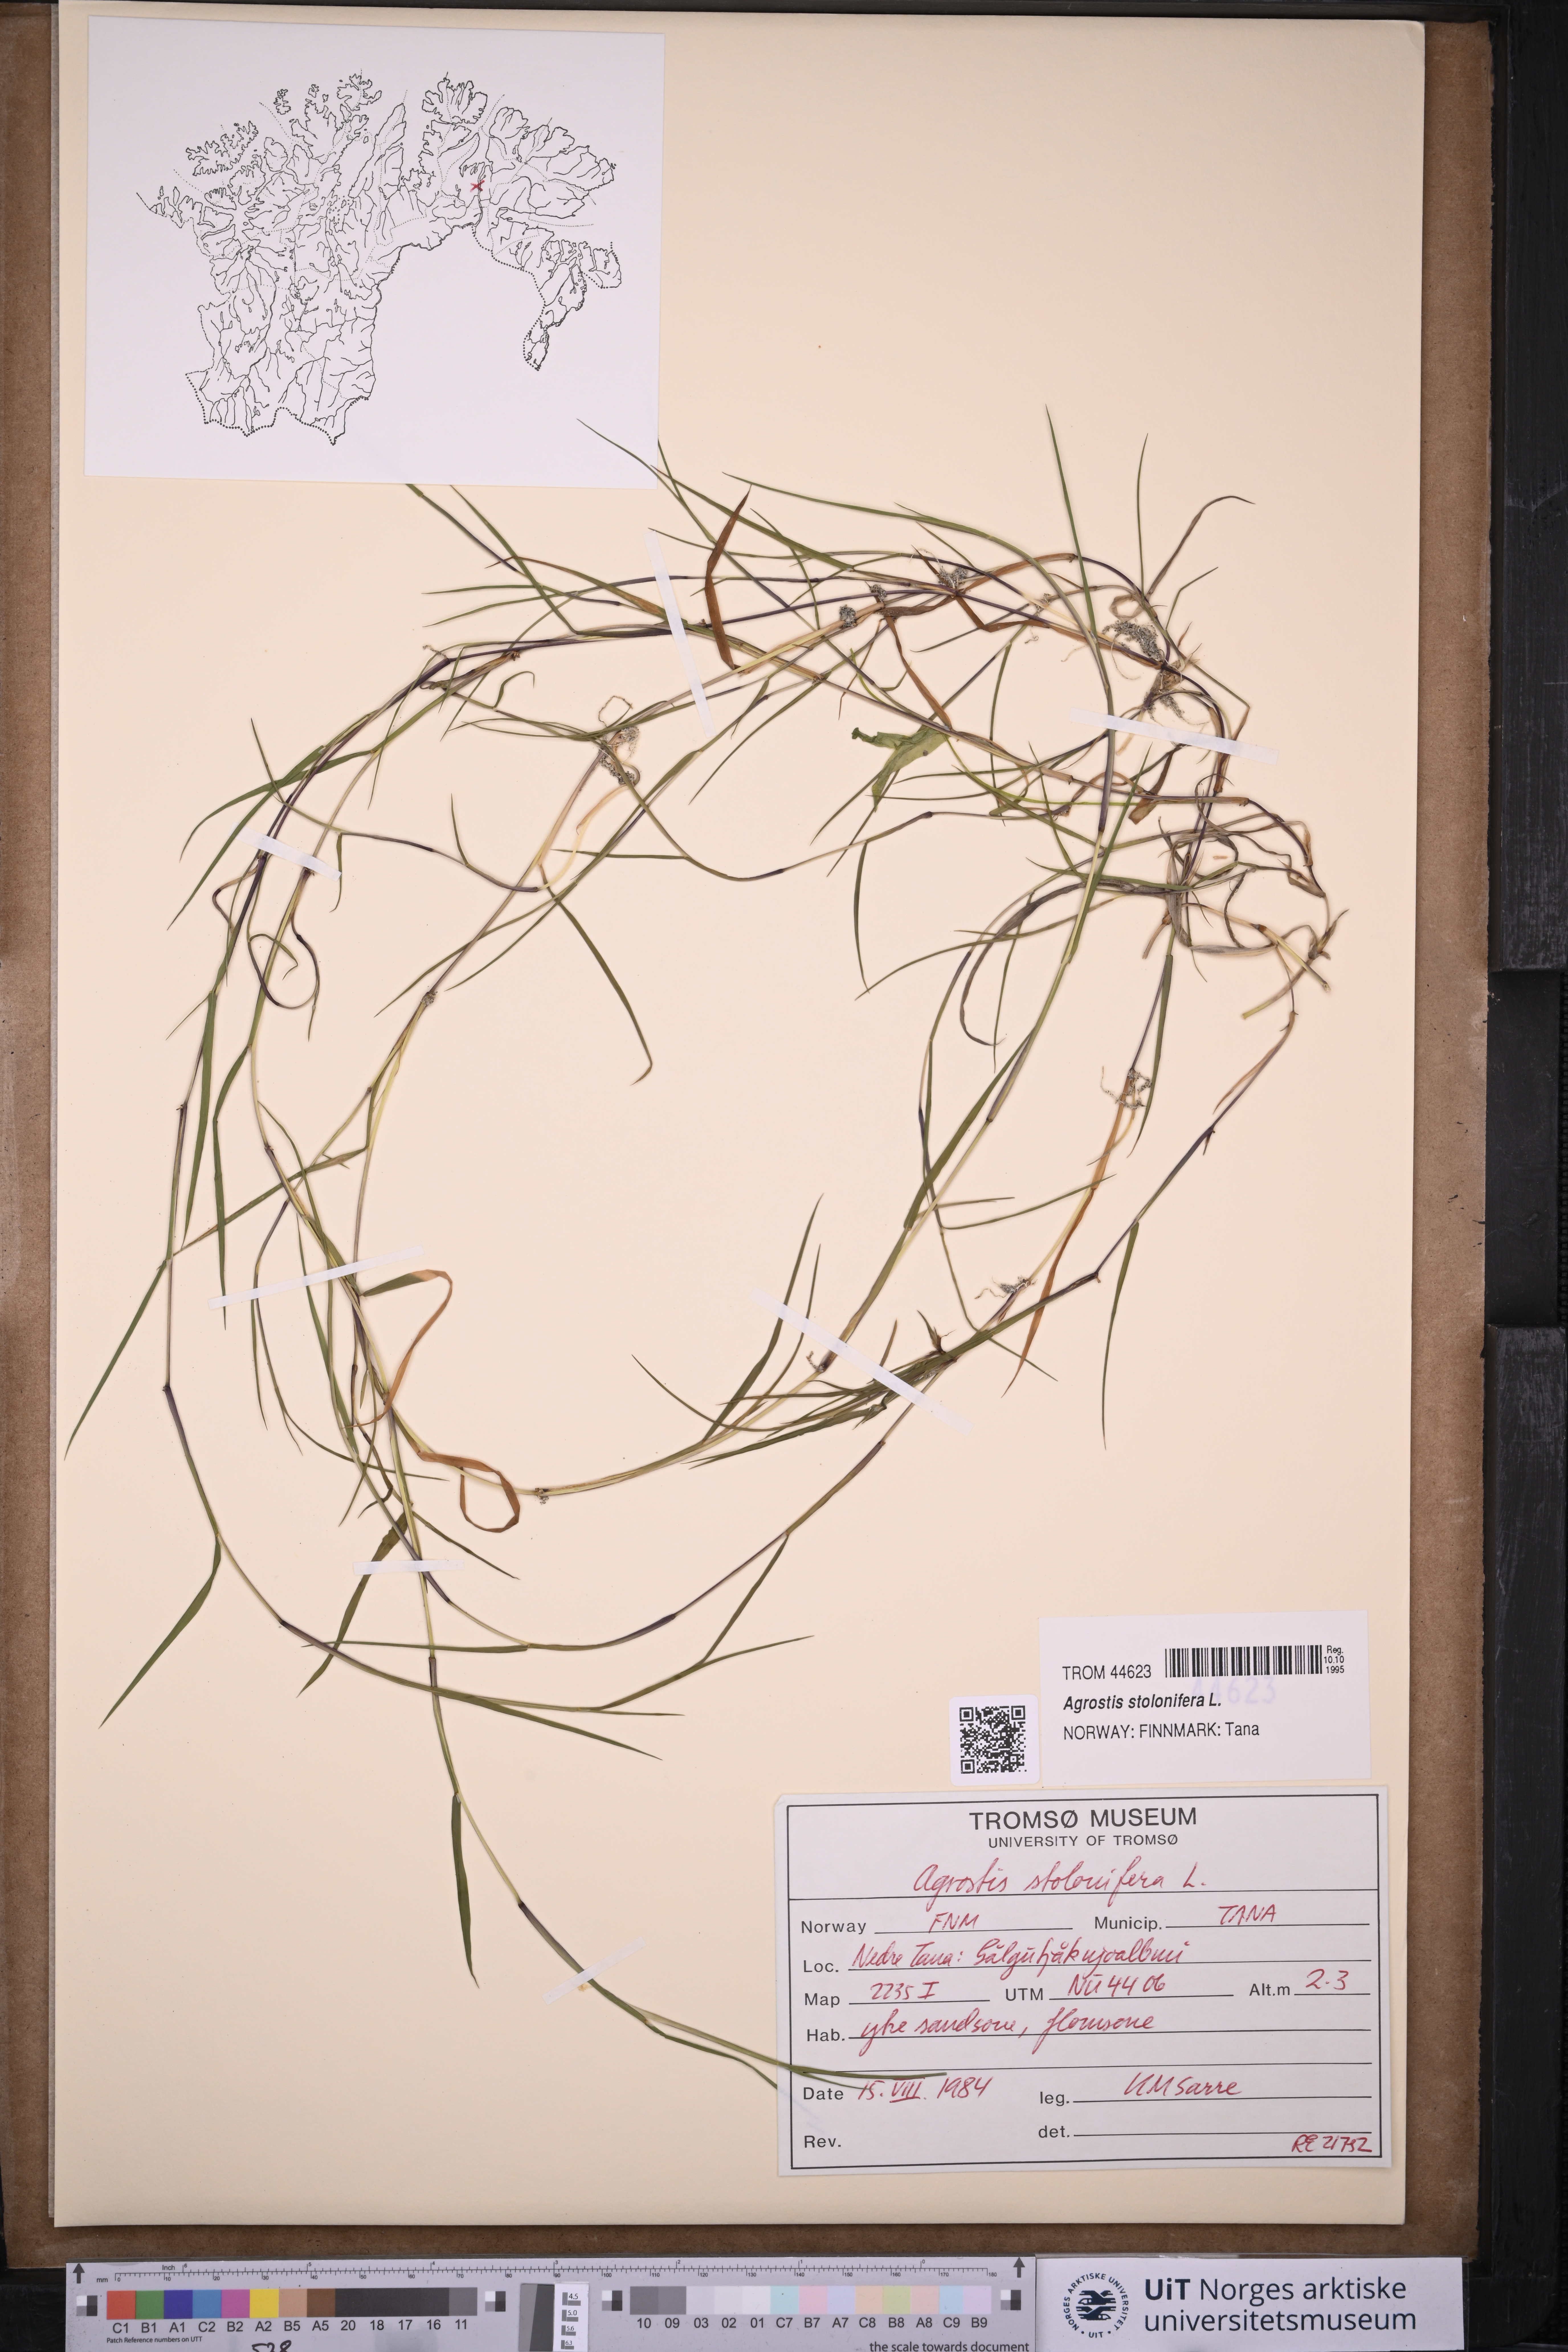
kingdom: Plantae
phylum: Tracheophyta
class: Liliopsida
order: Poales
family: Poaceae
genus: Agrostis
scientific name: Agrostis stolonifera
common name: Creeping bentgrass
